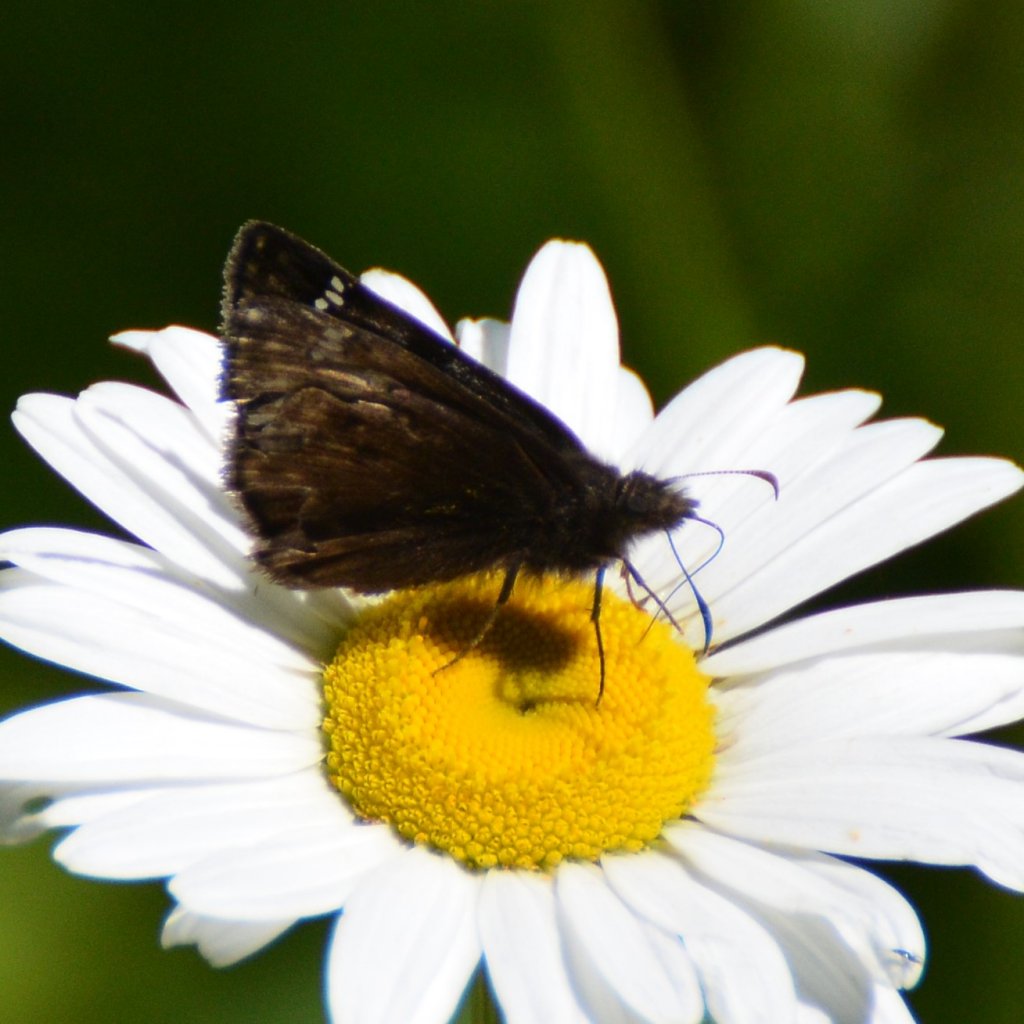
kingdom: Animalia
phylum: Arthropoda
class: Insecta
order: Lepidoptera
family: Hesperiidae
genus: Erynnis
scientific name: Erynnis
